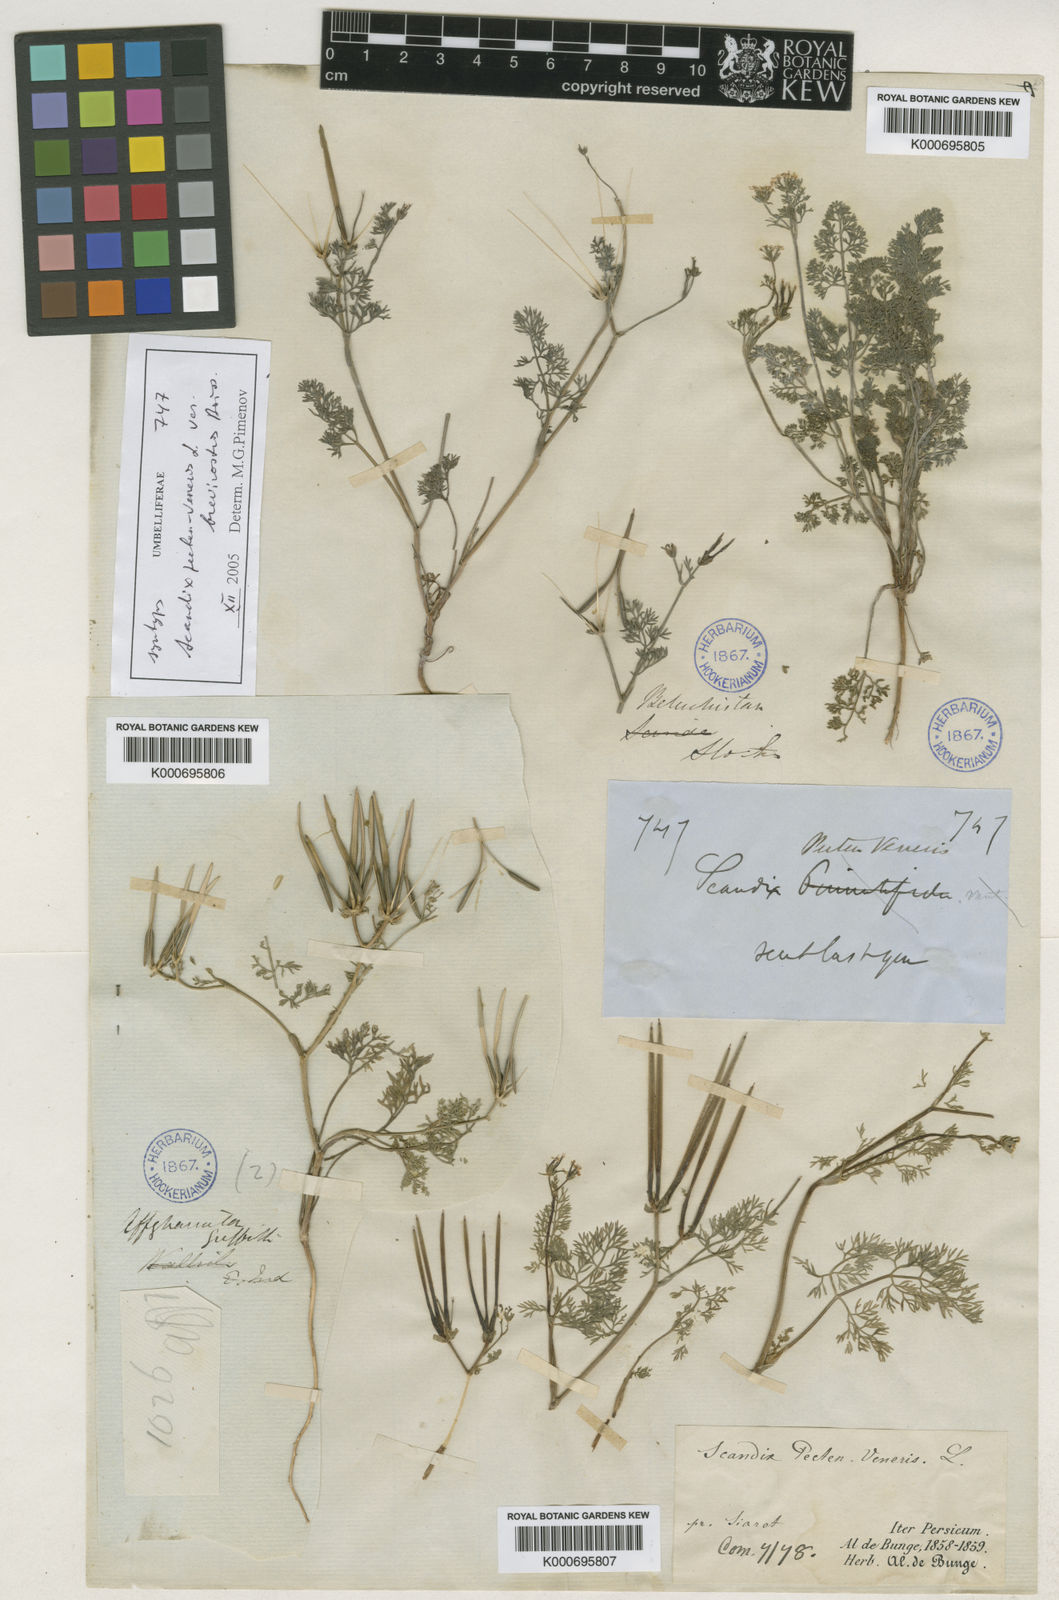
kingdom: Plantae
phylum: Tracheophyta
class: Magnoliopsida
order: Apiales
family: Apiaceae
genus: Scandix
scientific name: Scandix pecten-veneris
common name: Shepherd's-needle
